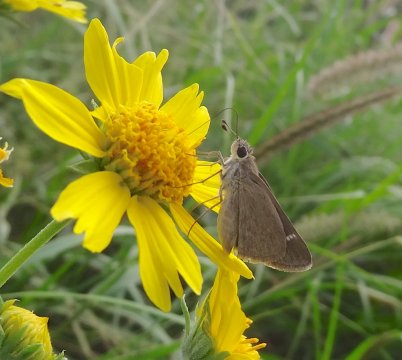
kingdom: Animalia
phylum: Arthropoda
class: Insecta
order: Lepidoptera
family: Hesperiidae
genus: Lerodea
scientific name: Lerodea eufala
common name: Eufala Skipper
